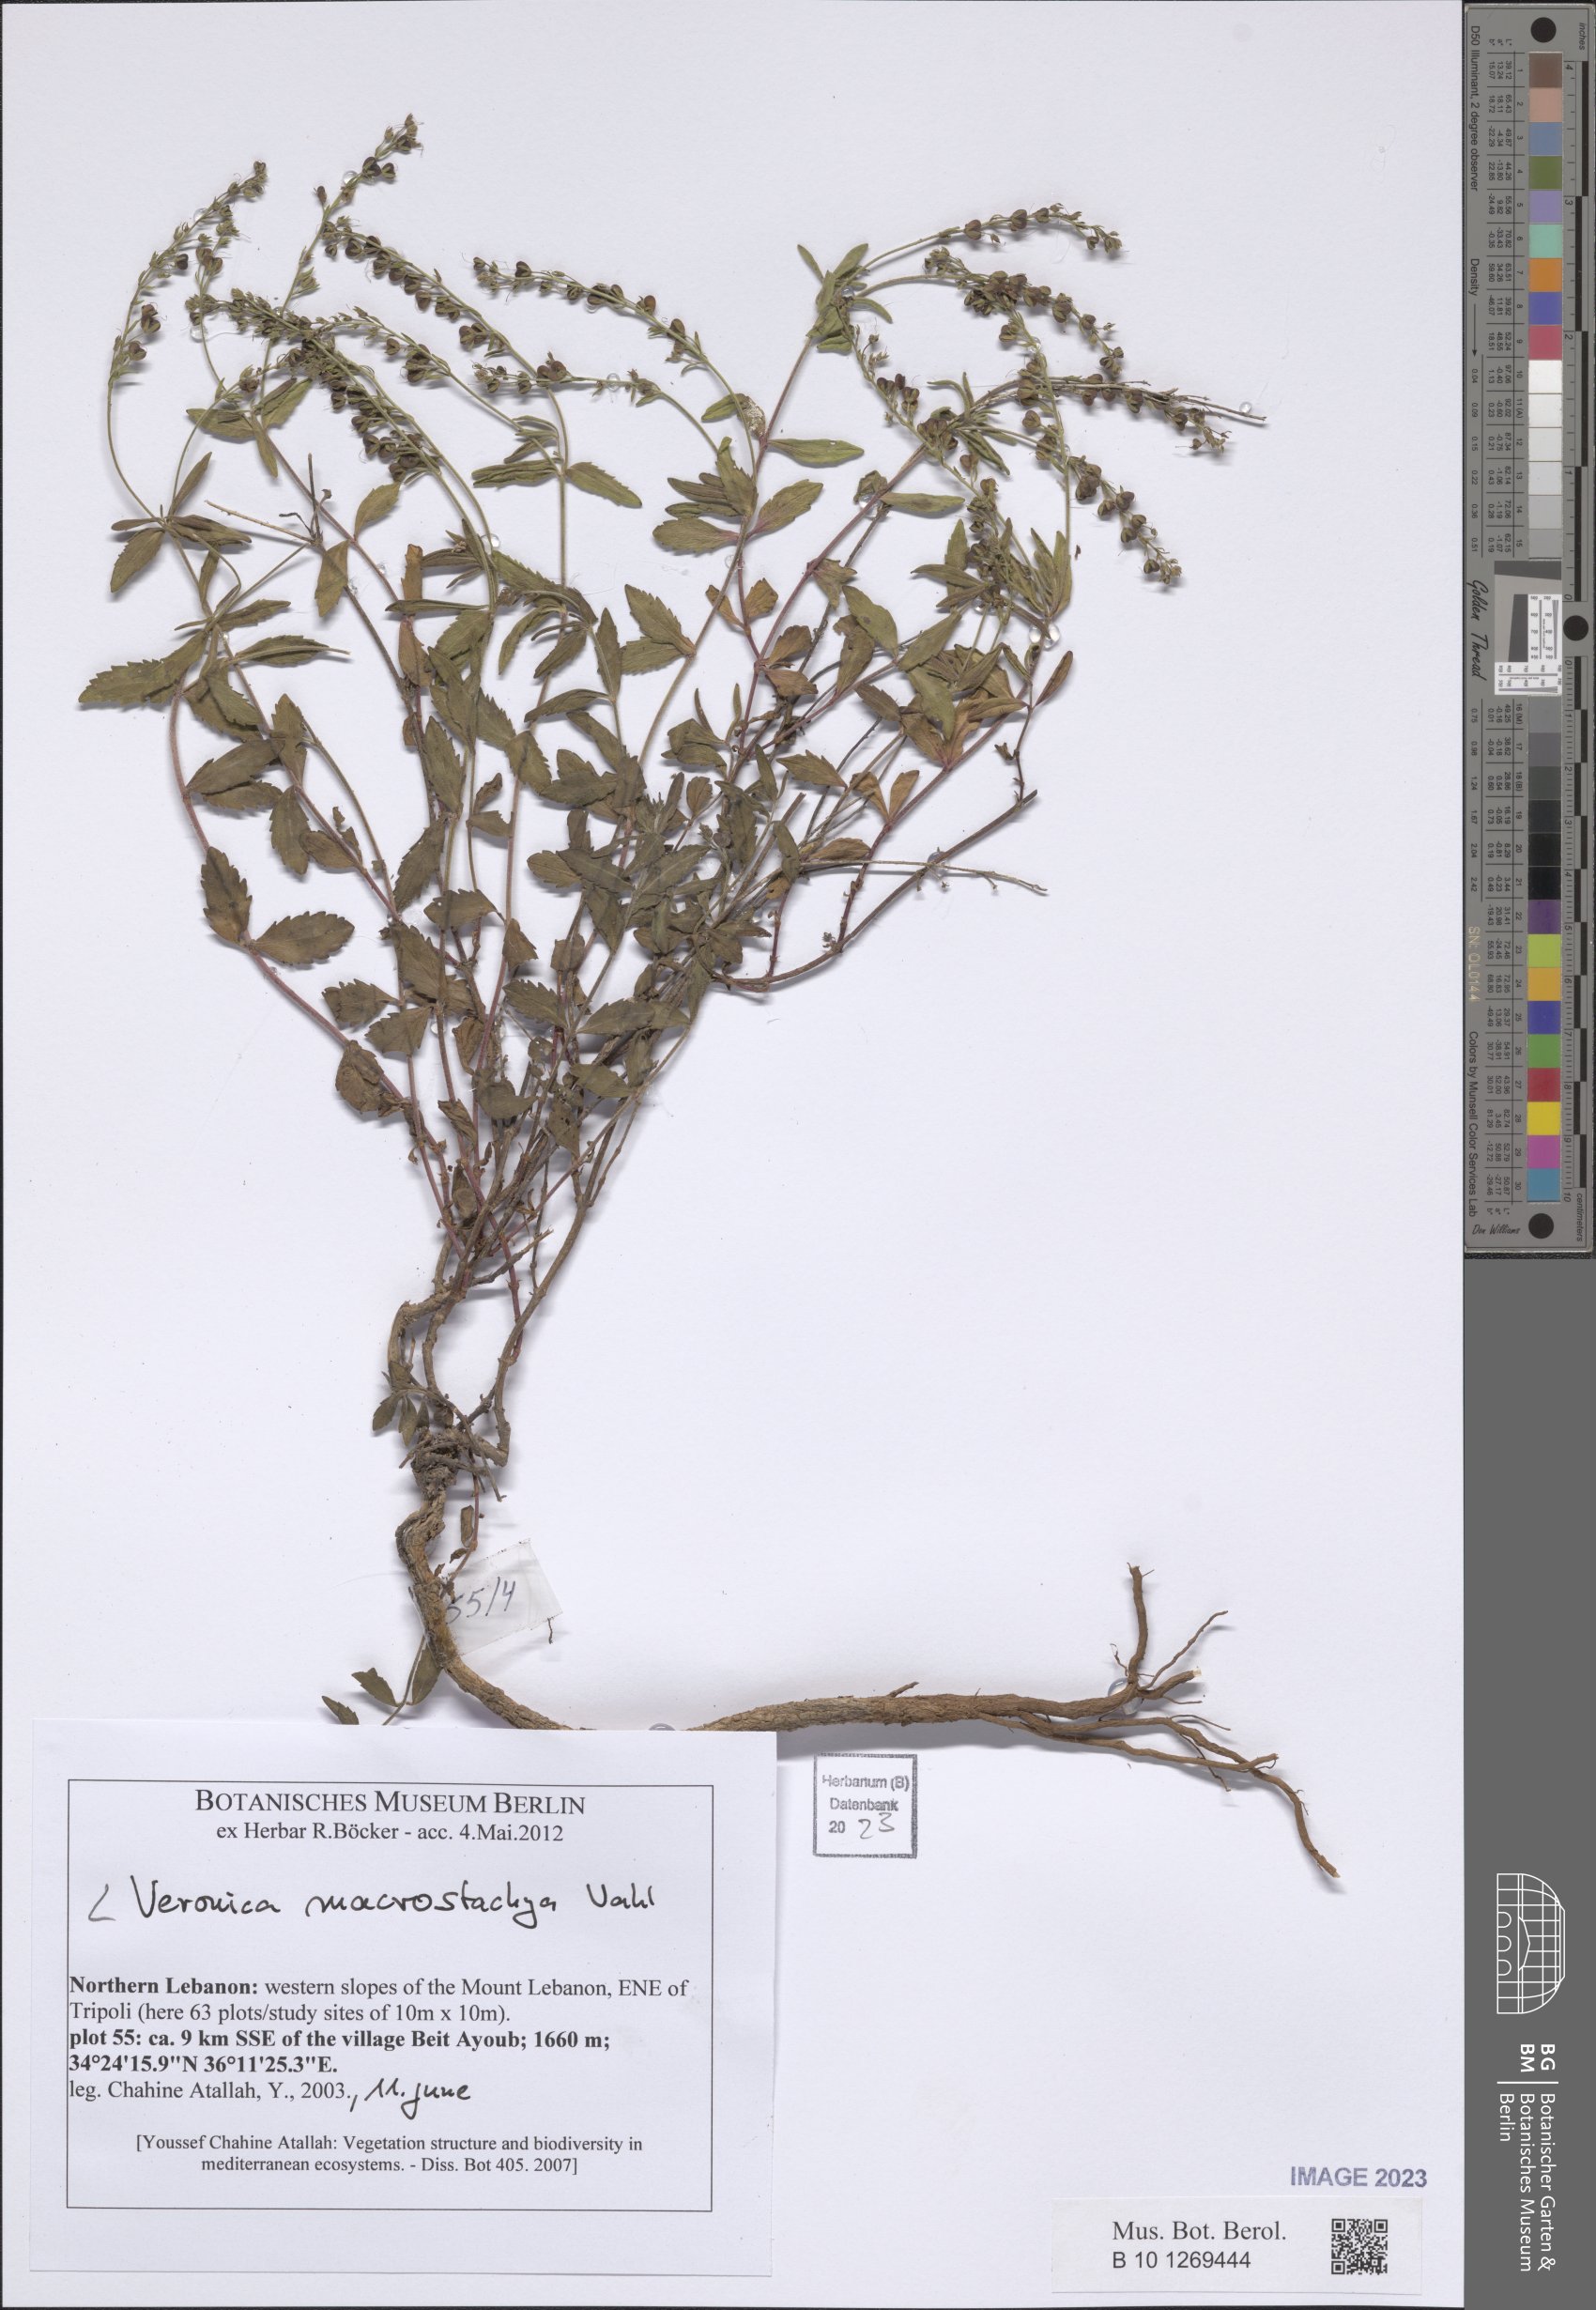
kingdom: Plantae
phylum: Tracheophyta
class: Magnoliopsida
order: Lamiales
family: Plantaginaceae
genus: Veronica
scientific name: Veronica macrostachya
